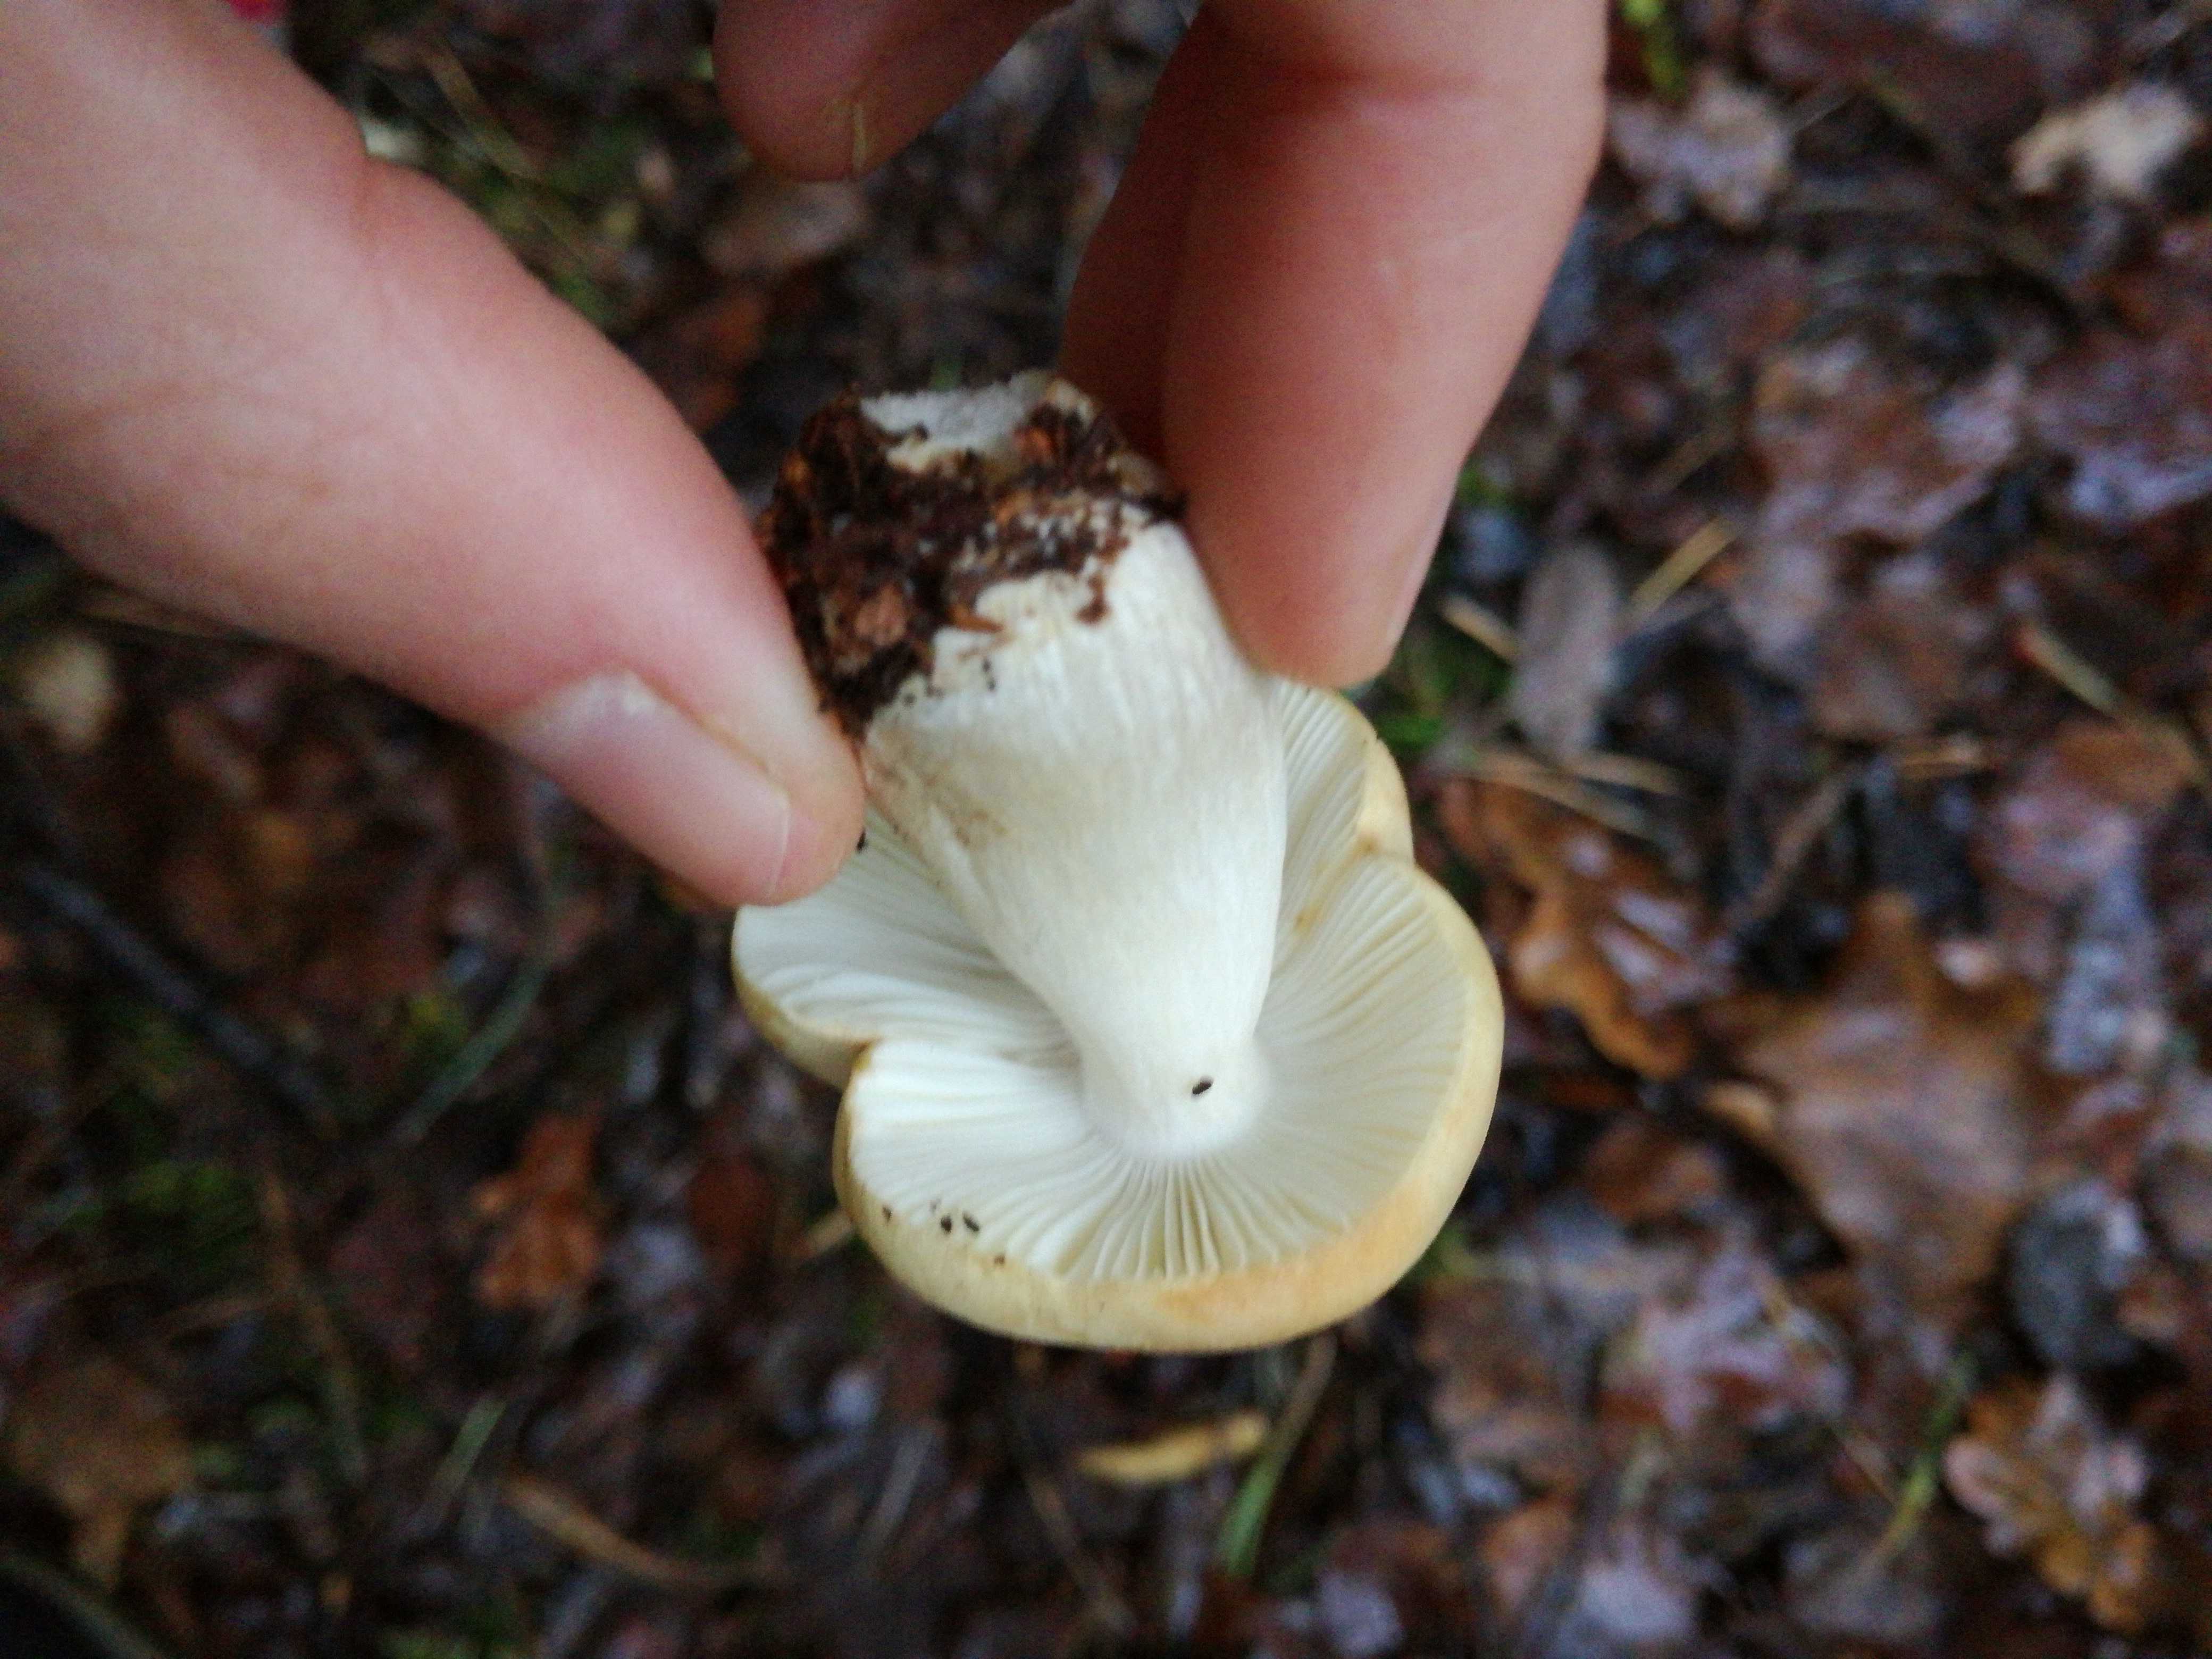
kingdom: Fungi
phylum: Basidiomycota
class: Agaricomycetes
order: Russulales
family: Russulaceae
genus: Russula
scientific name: Russula ochroleuca
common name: okkergul skørhat
